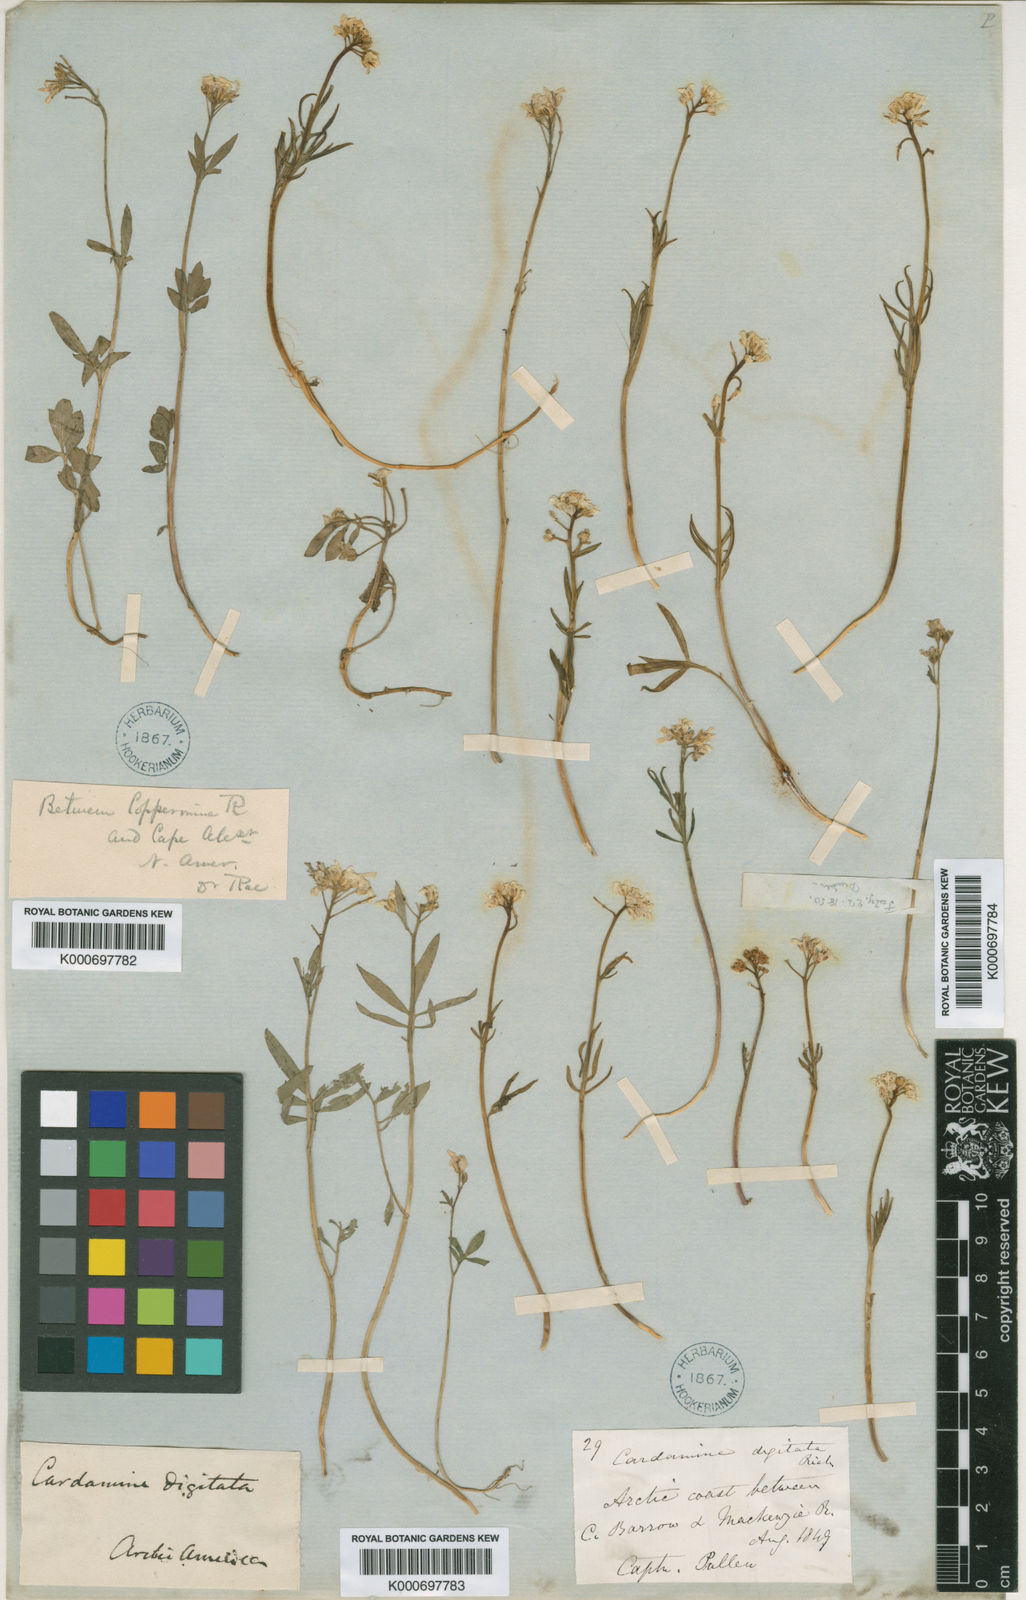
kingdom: Plantae
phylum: Tracheophyta
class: Magnoliopsida
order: Brassicales
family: Brassicaceae
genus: Cardamine
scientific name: Cardamine digitata
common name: Richardson's bittercress
